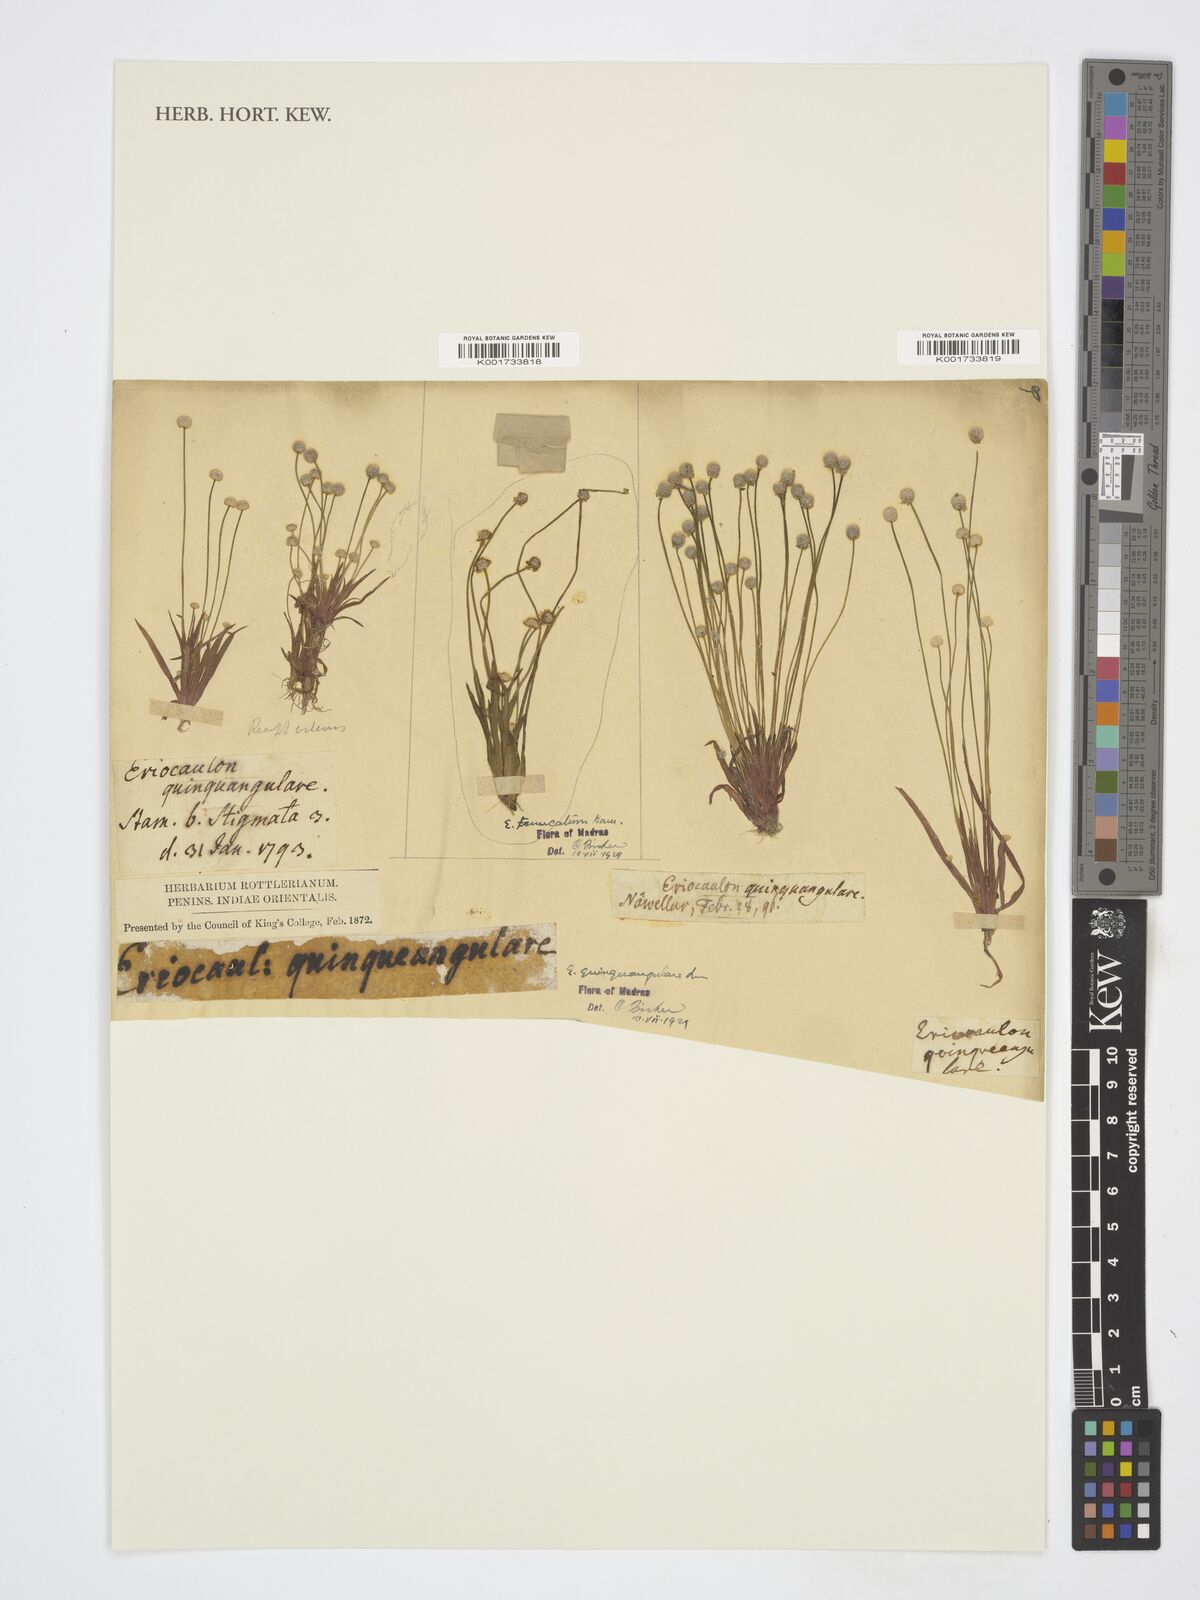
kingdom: Plantae
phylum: Tracheophyta
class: Liliopsida
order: Poales
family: Eriocaulaceae
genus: Eriocaulon
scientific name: Eriocaulon truncatum
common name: Short pipe-wort
